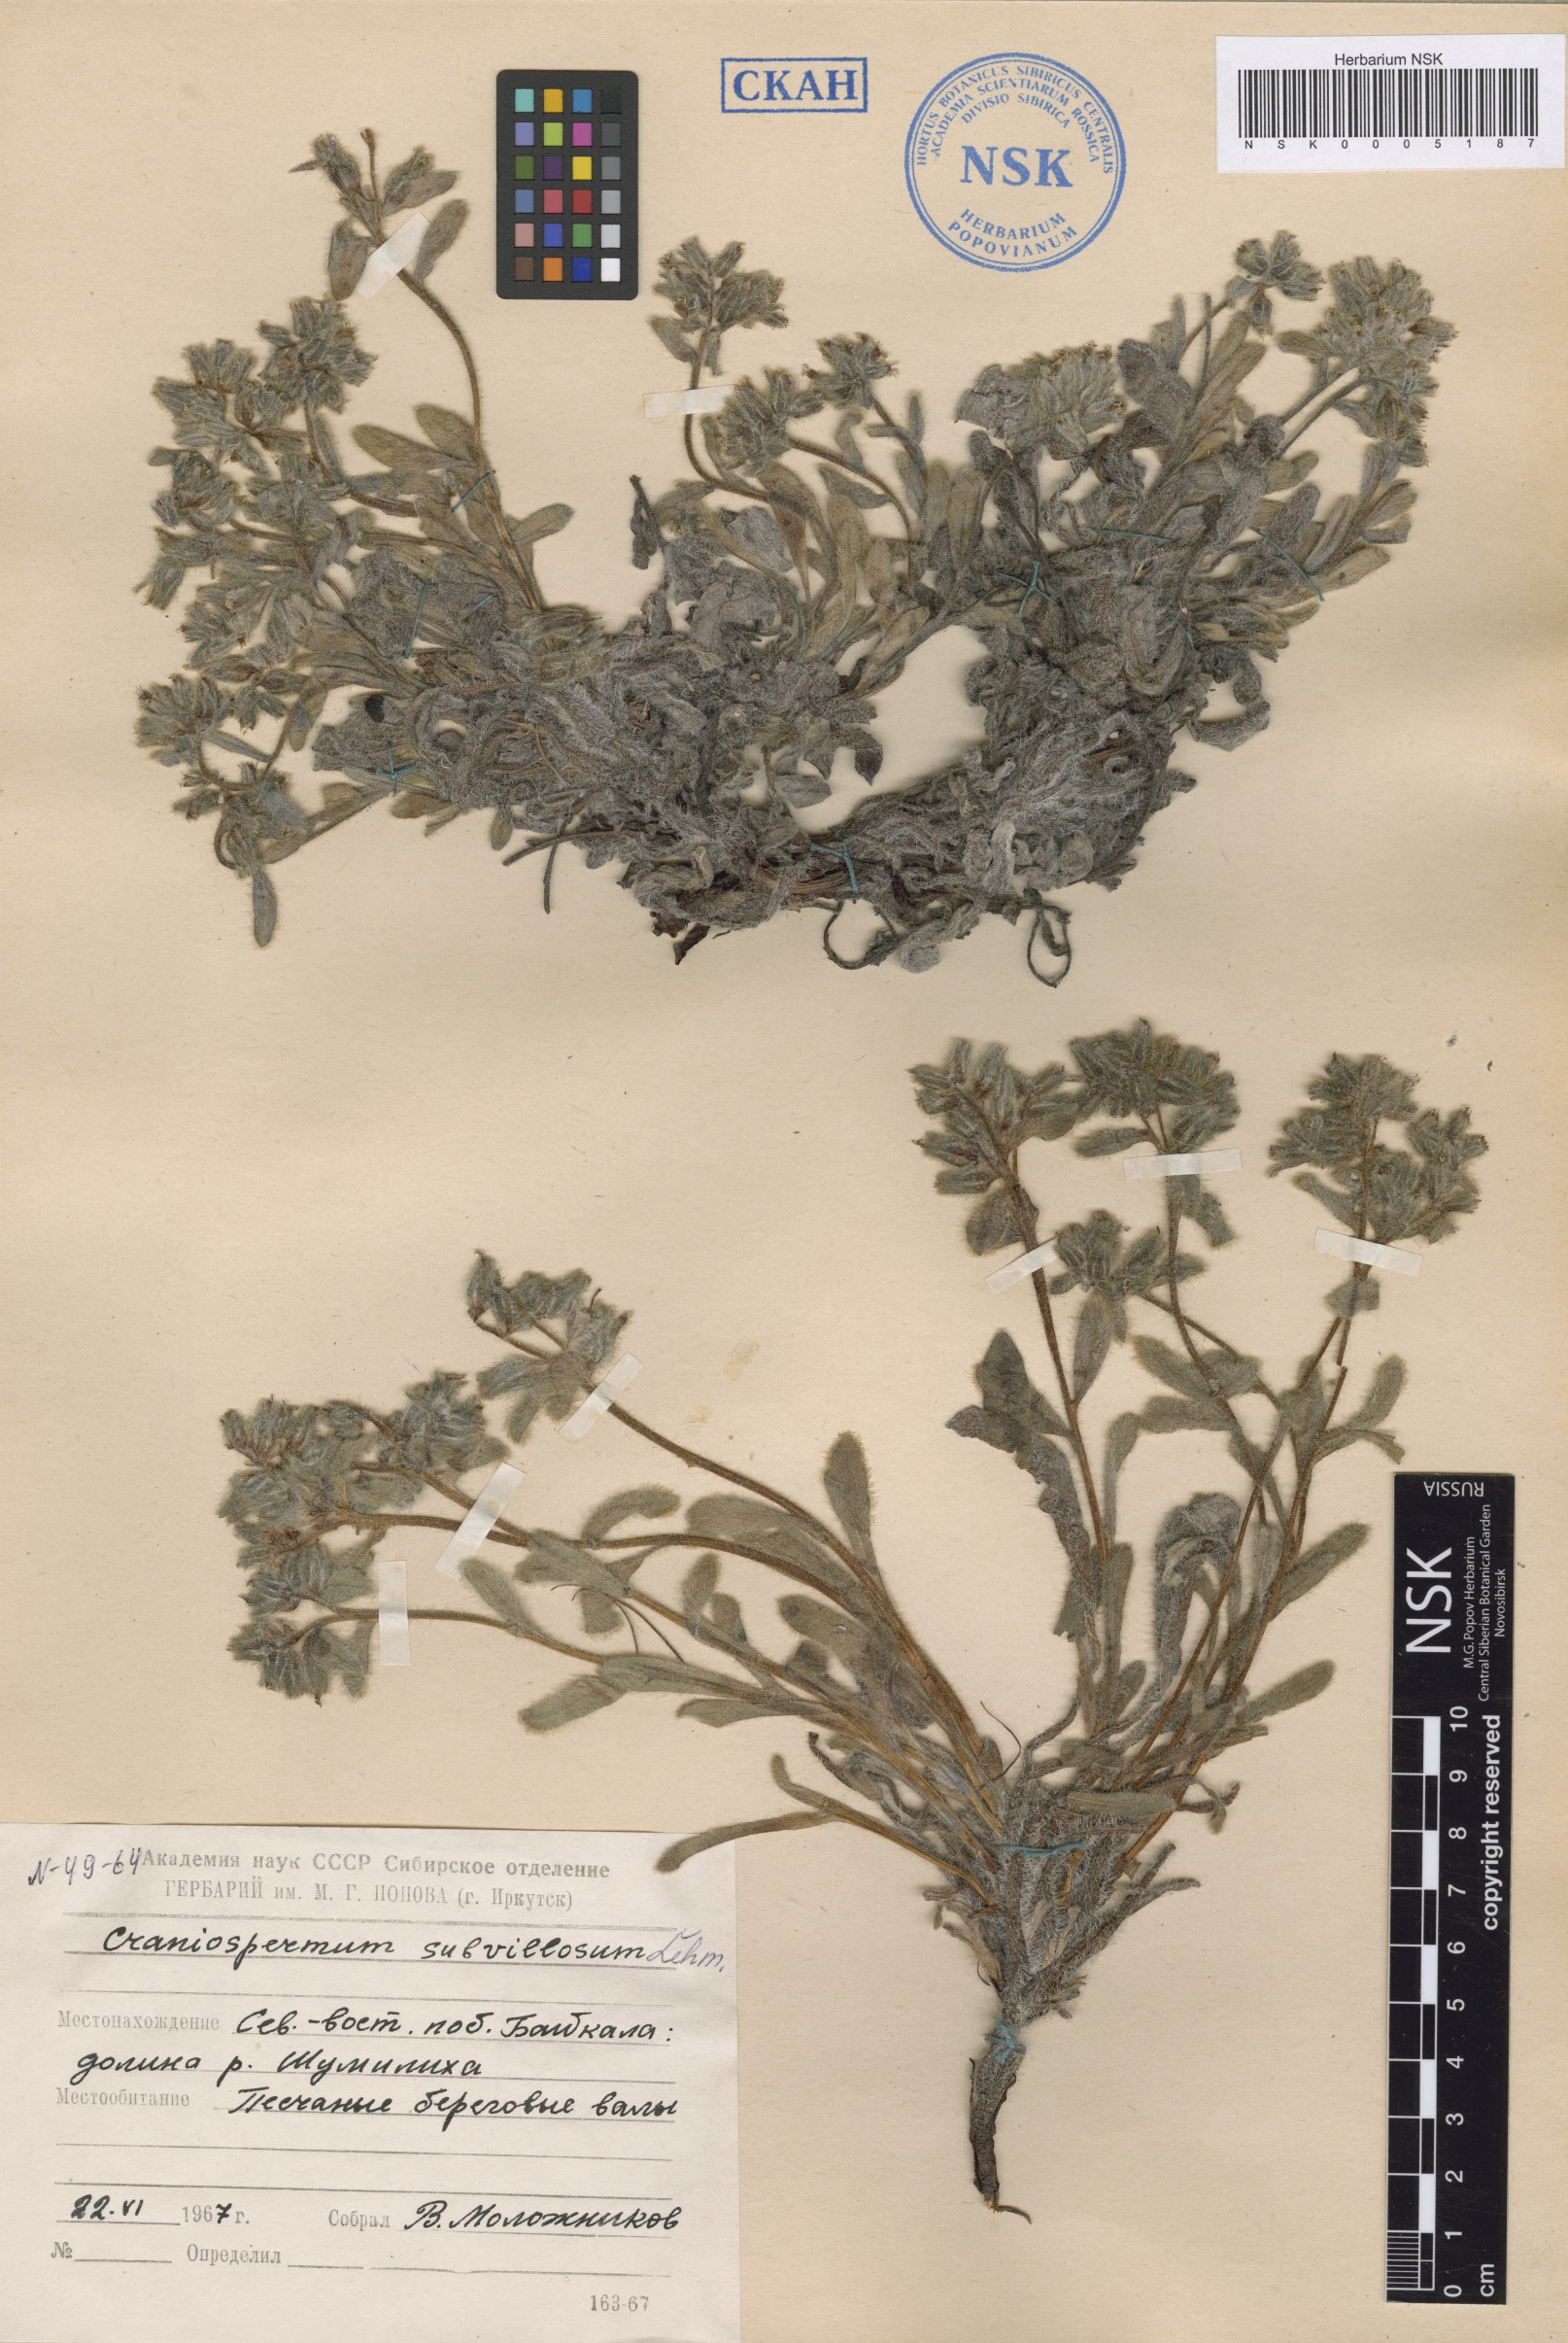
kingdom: Plantae
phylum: Tracheophyta
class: Magnoliopsida
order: Boraginales
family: Boraginaceae
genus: Craniospermum
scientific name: Craniospermum subvillosum
